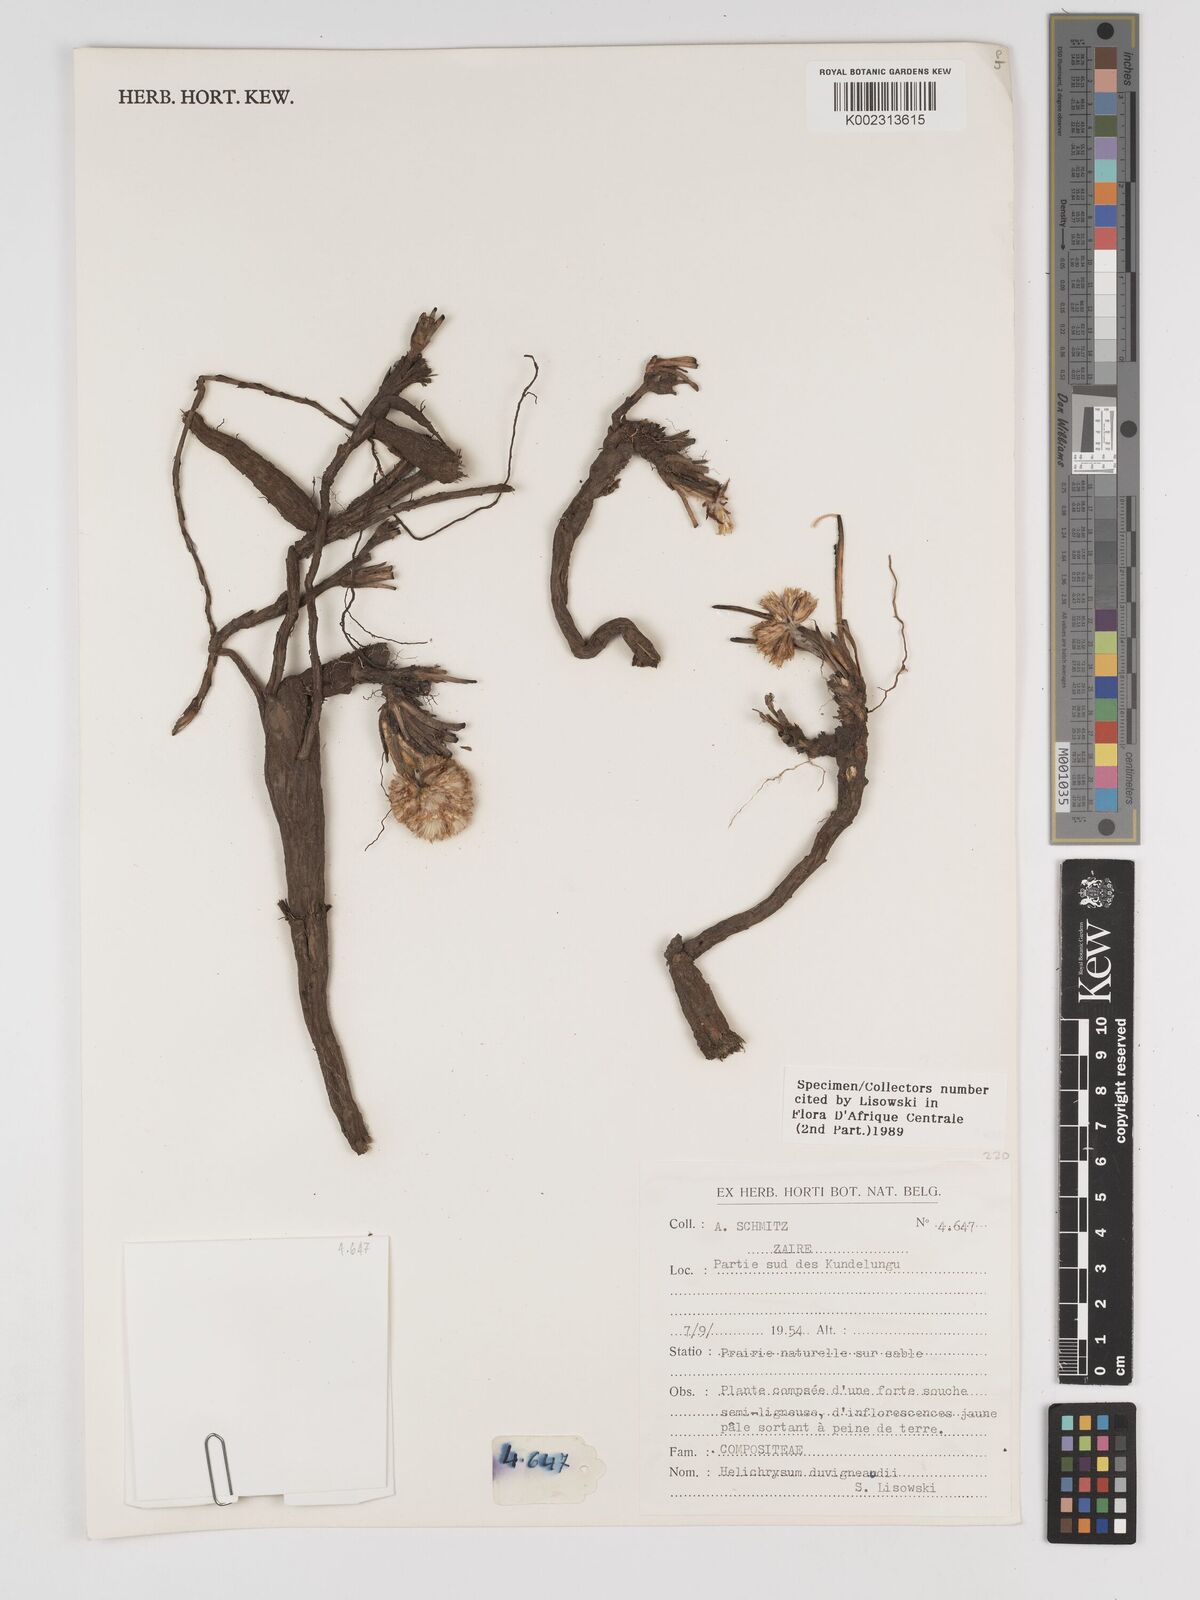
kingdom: Plantae
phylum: Tracheophyta
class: Magnoliopsida
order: Asterales
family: Asteraceae
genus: Helichrysum
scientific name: Helichrysum duvigneaudii
